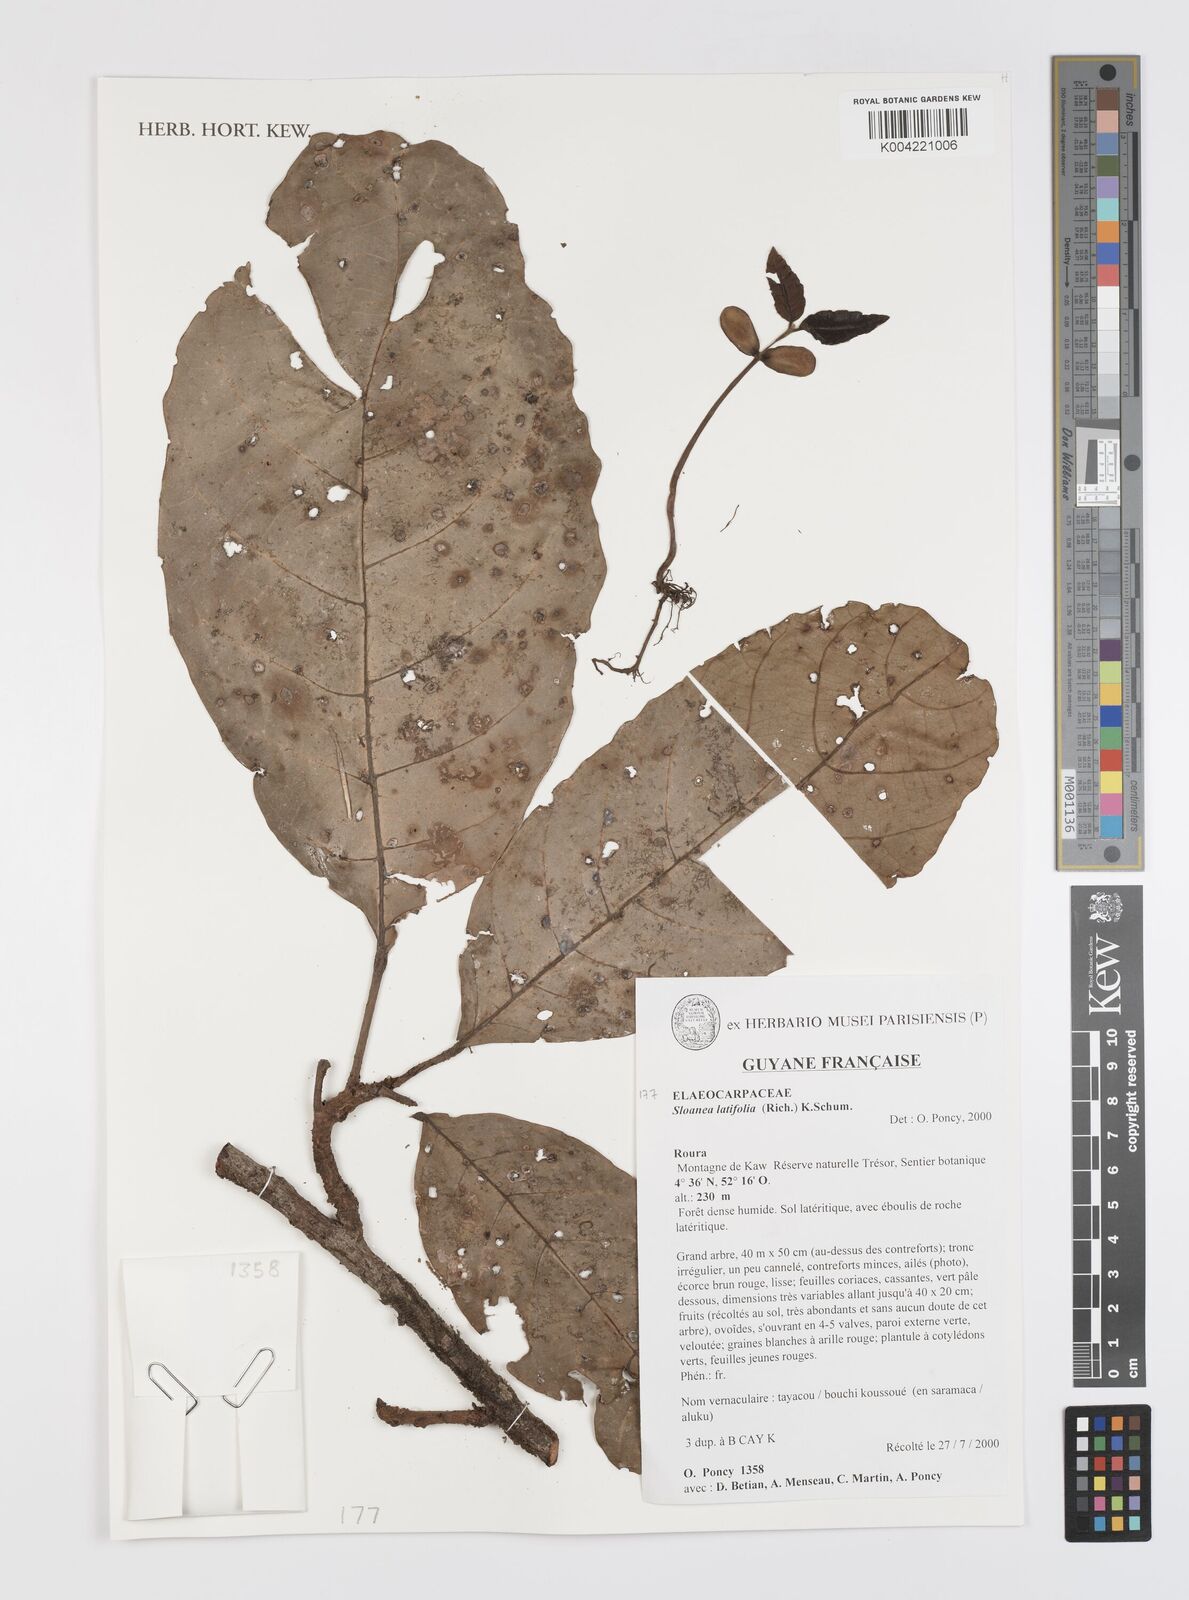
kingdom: Plantae
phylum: Tracheophyta
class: Magnoliopsida
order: Oxalidales
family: Elaeocarpaceae
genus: Sloanea
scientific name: Sloanea latifolia
